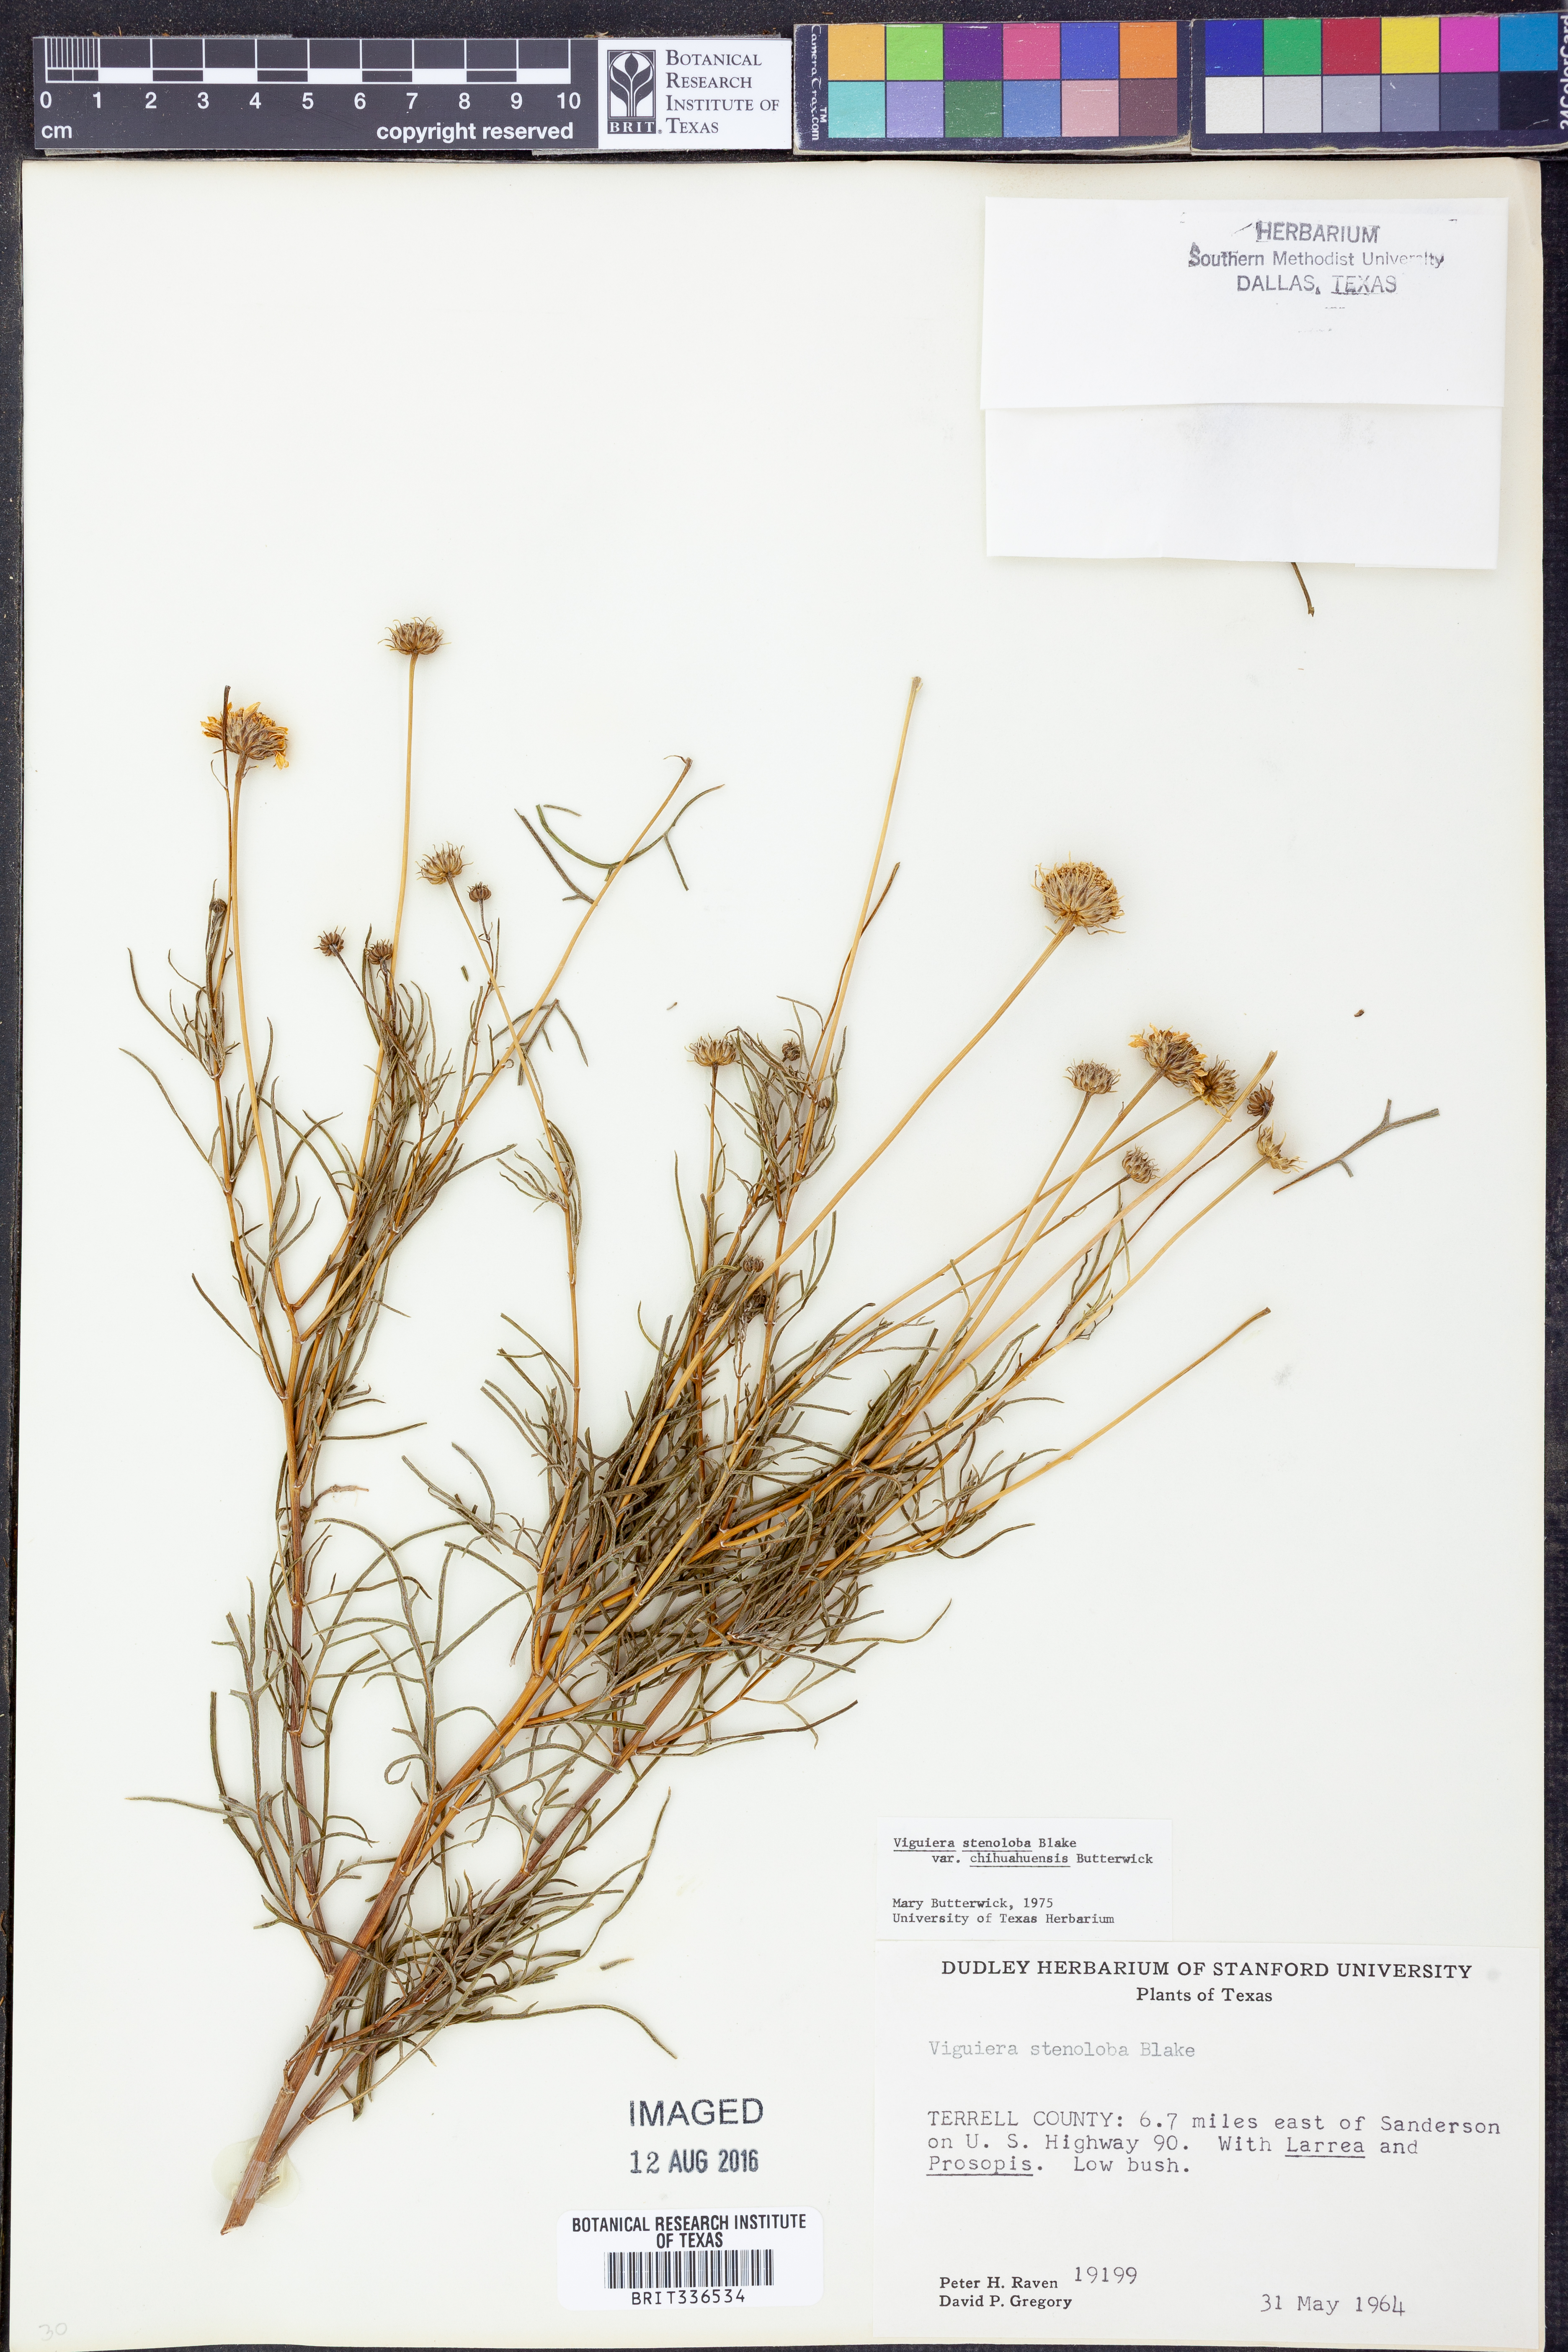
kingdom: Plantae
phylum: Tracheophyta
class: Magnoliopsida
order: Asterales
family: Asteraceae
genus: Sidneya
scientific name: Sidneya tenuifolia
